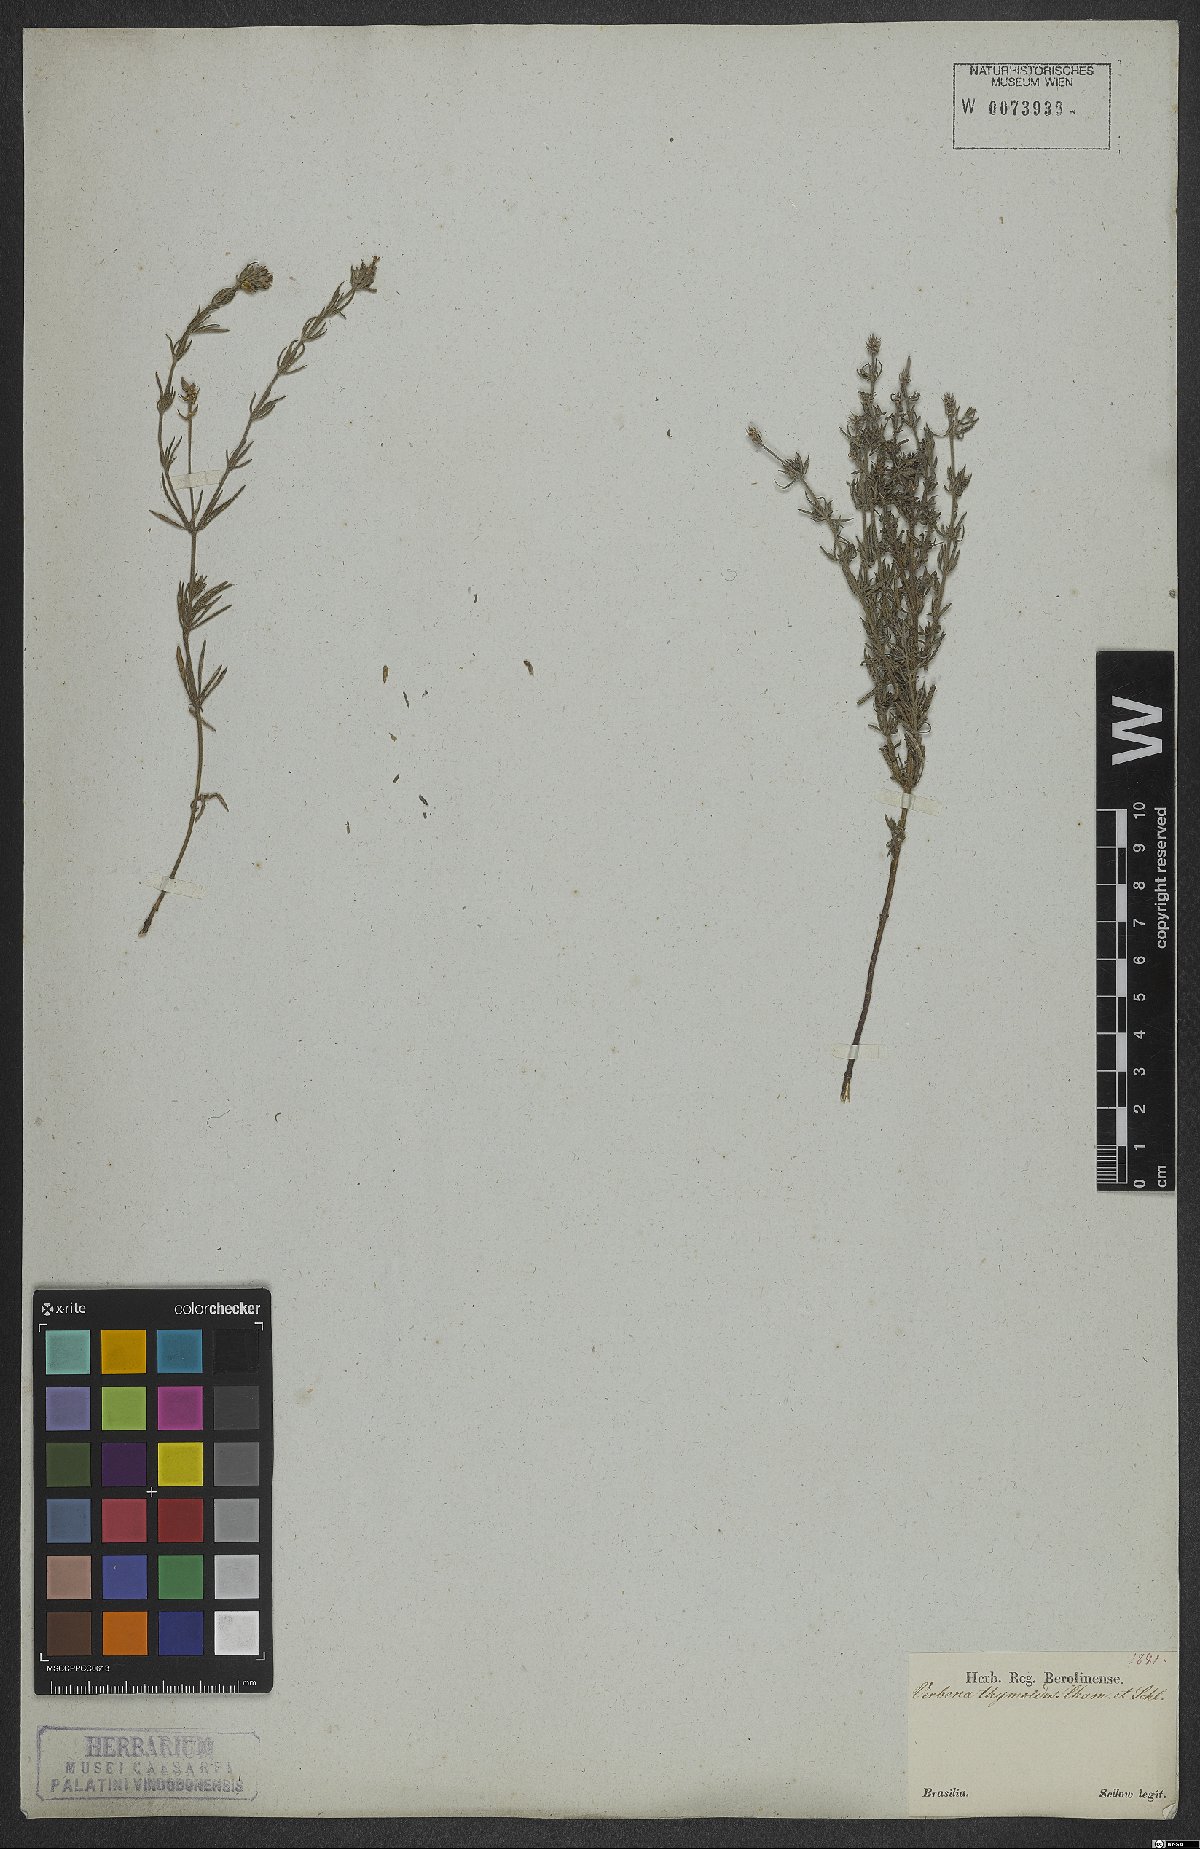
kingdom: Plantae
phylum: Tracheophyta
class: Magnoliopsida
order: Lamiales
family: Verbenaceae
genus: Verbena
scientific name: Verbena thymoides
